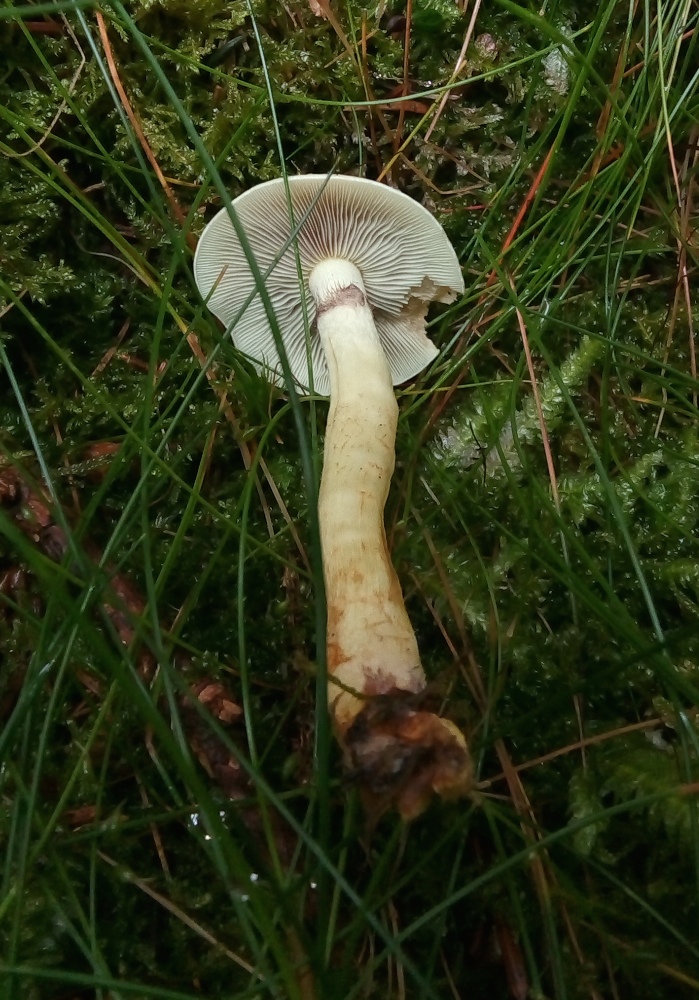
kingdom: Fungi
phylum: Basidiomycota
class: Agaricomycetes
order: Agaricales
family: Strophariaceae
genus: Hypholoma
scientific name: Hypholoma fasciculare
